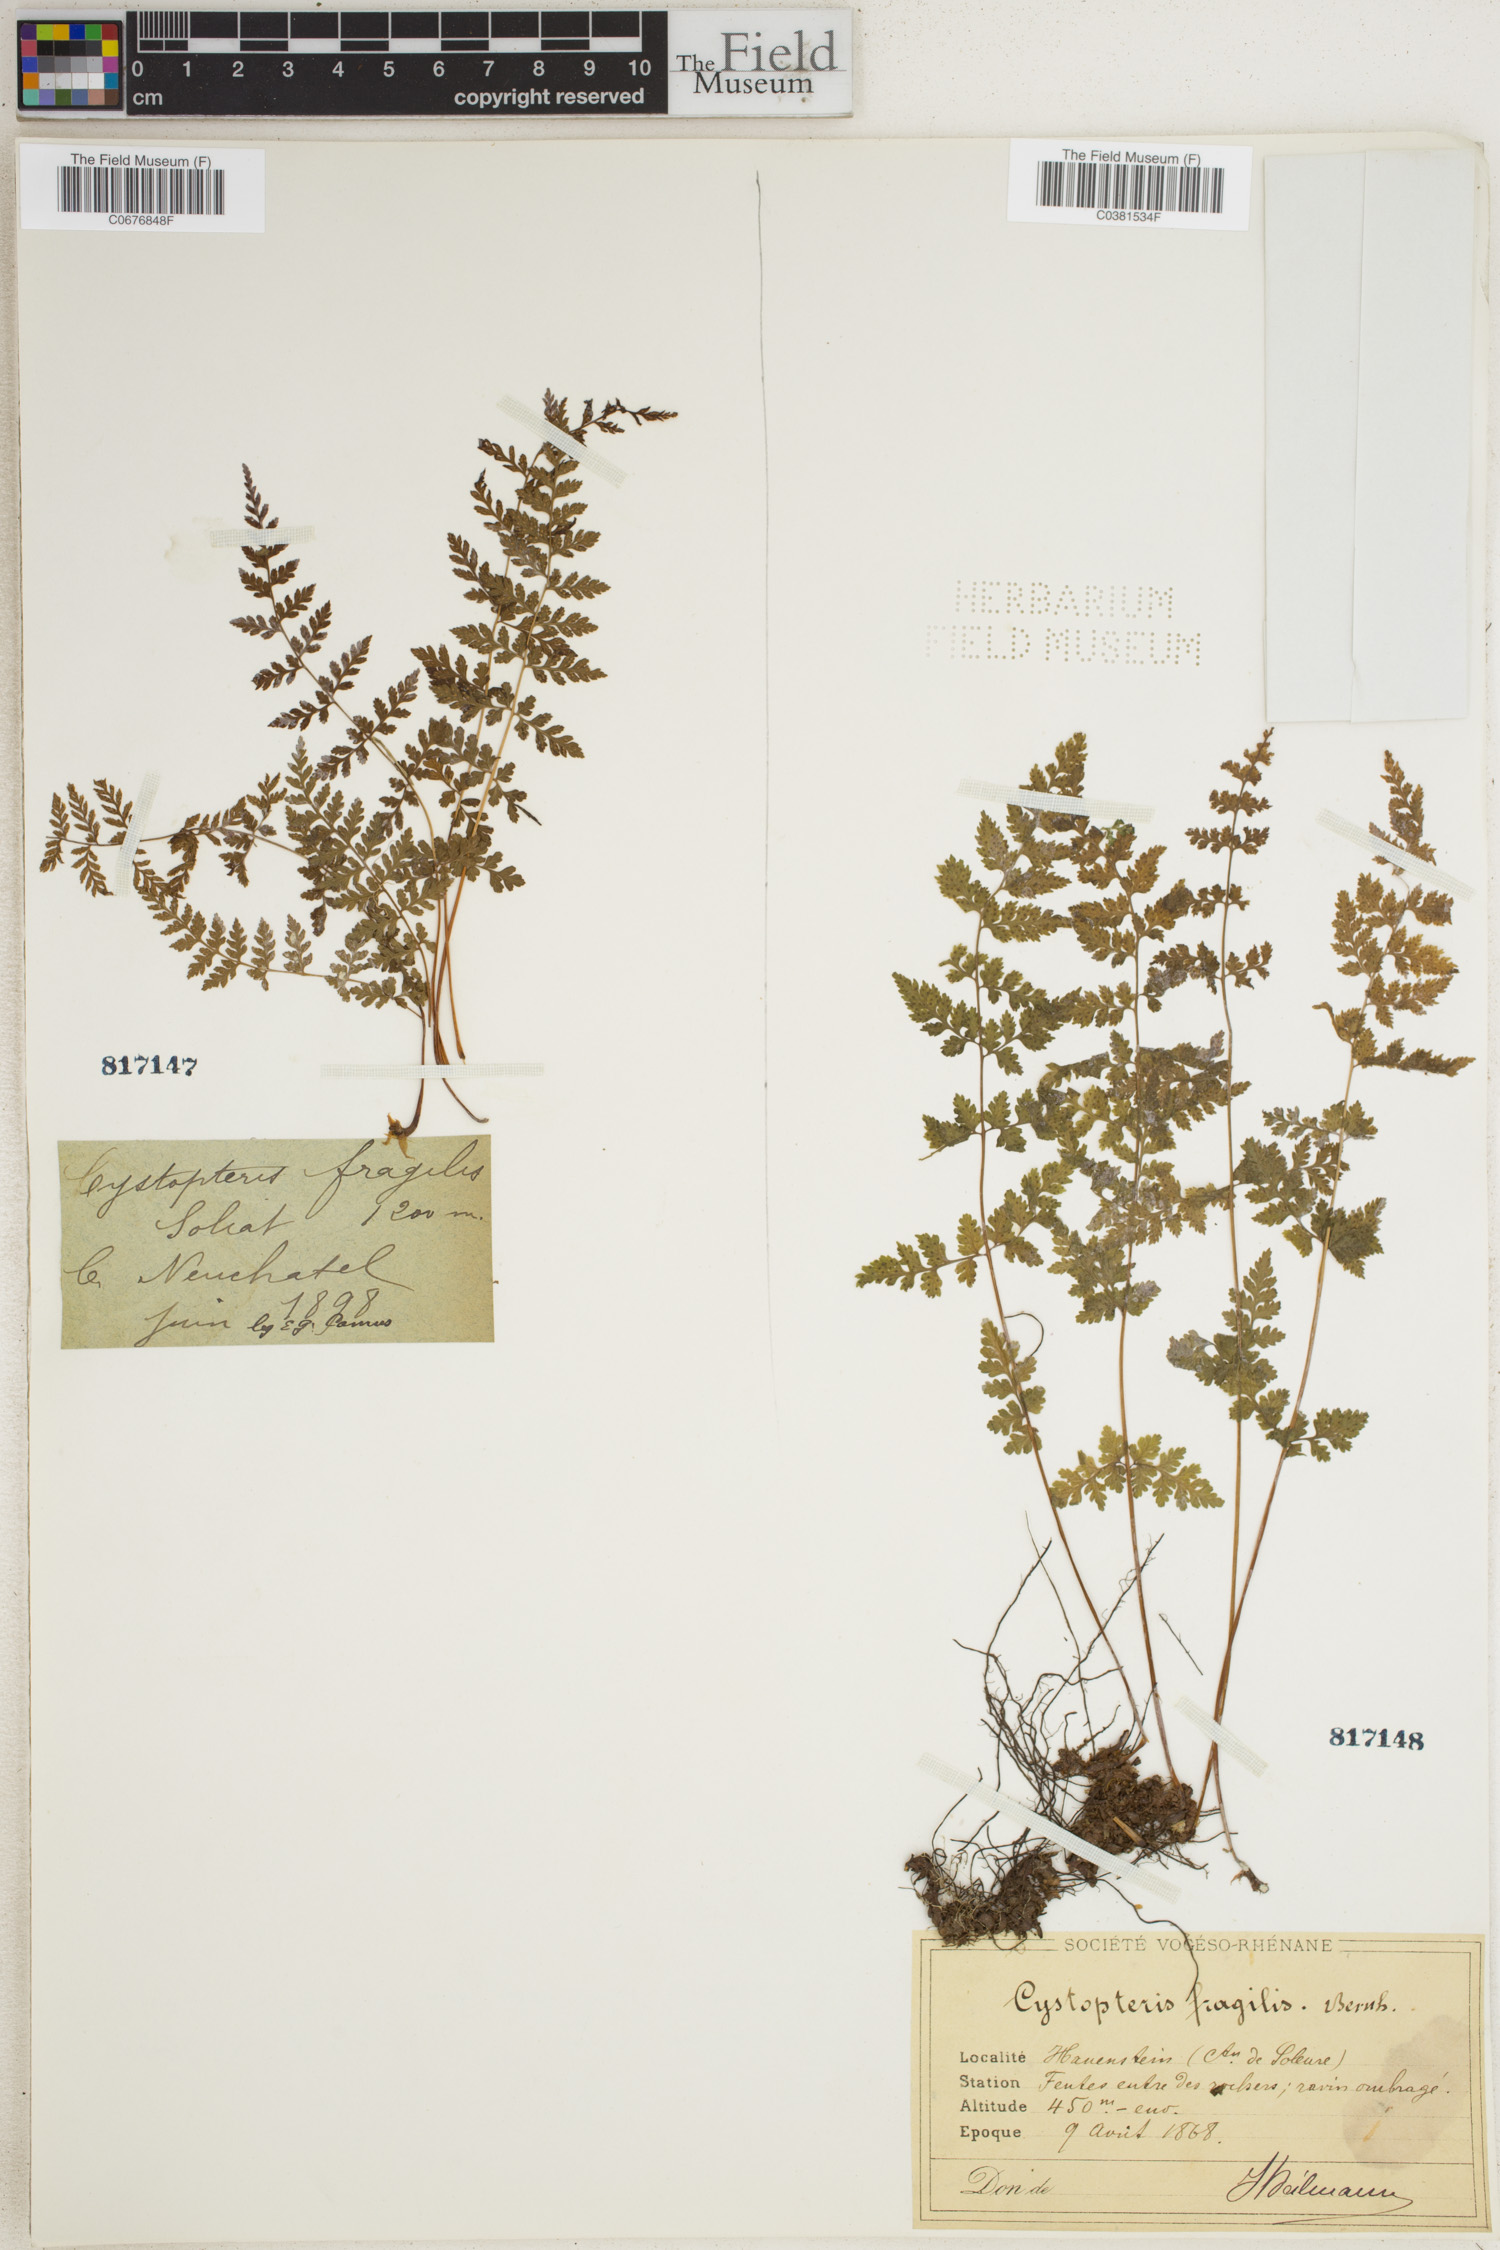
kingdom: Plantae
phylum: Tracheophyta
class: Polypodiopsida
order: Polypodiales
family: Cystopteridaceae
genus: Cystopteris
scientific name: Cystopteris fragilis
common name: Brittle bladder fern
